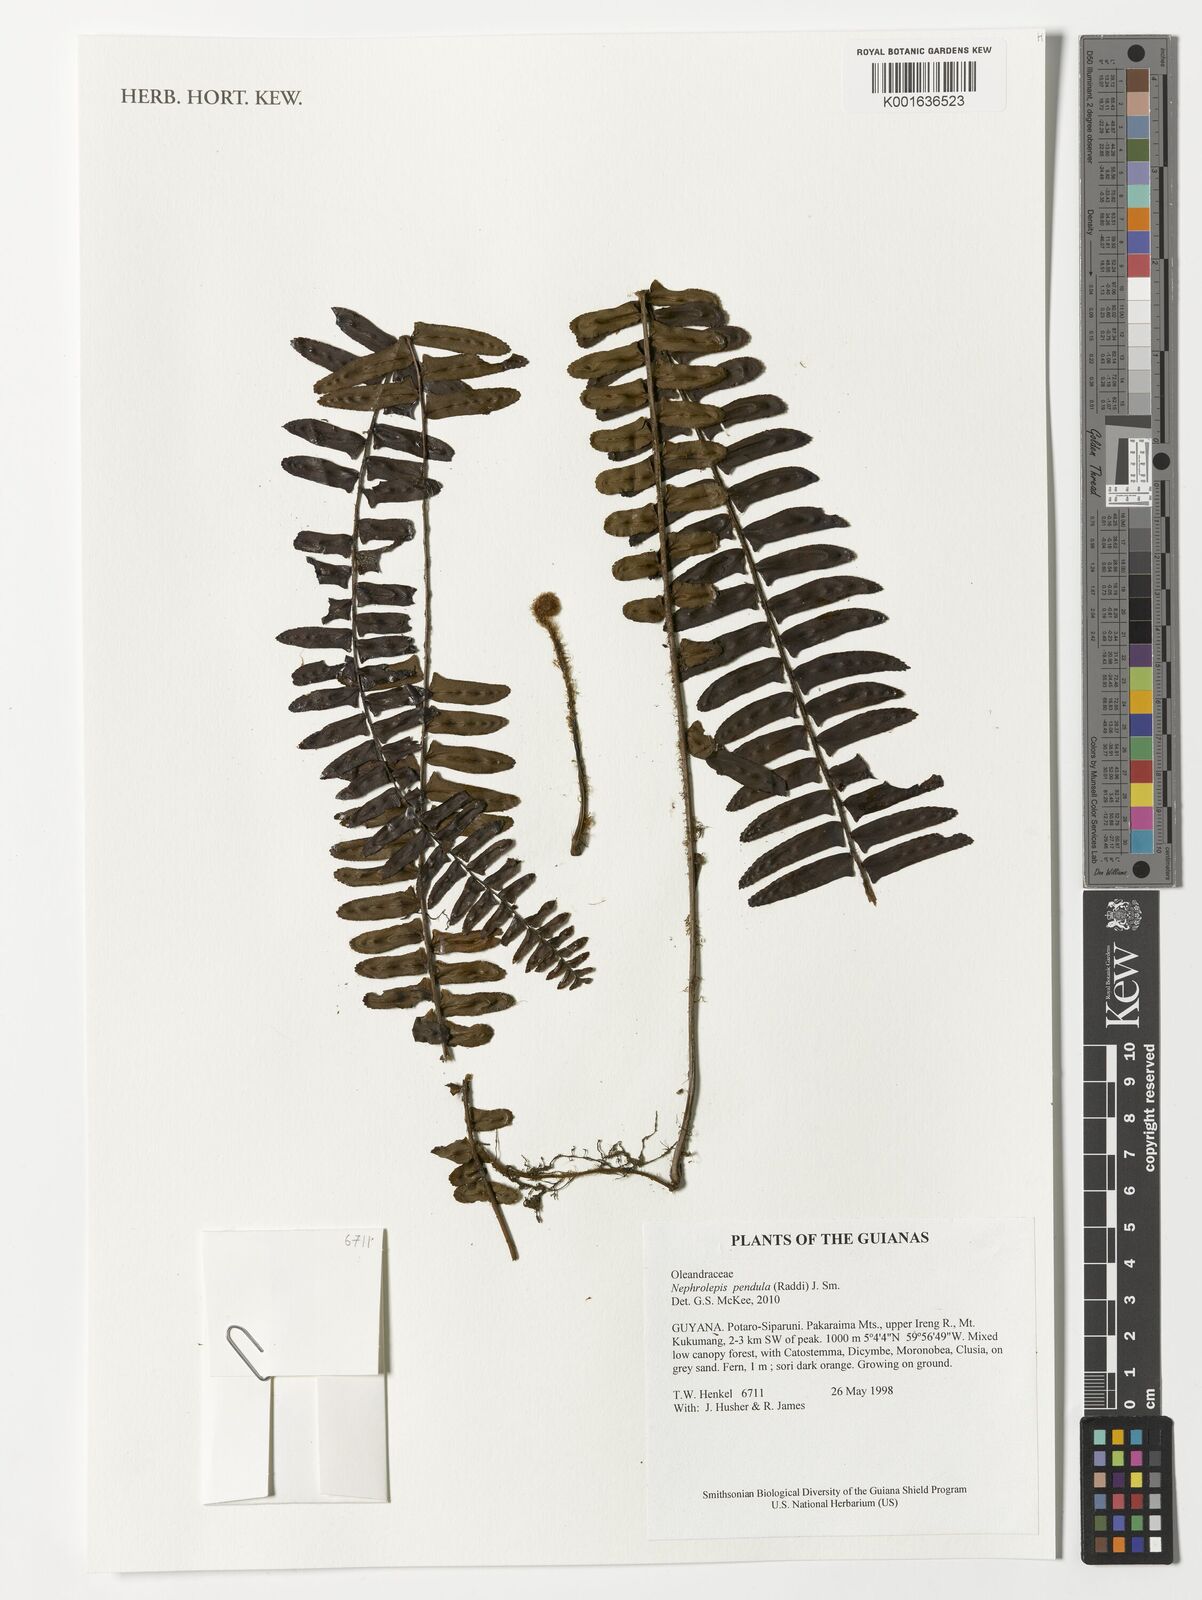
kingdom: Plantae
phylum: Tracheophyta
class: Polypodiopsida
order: Polypodiales
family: Nephrolepidaceae
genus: Nephrolepis
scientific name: Nephrolepis pendula
